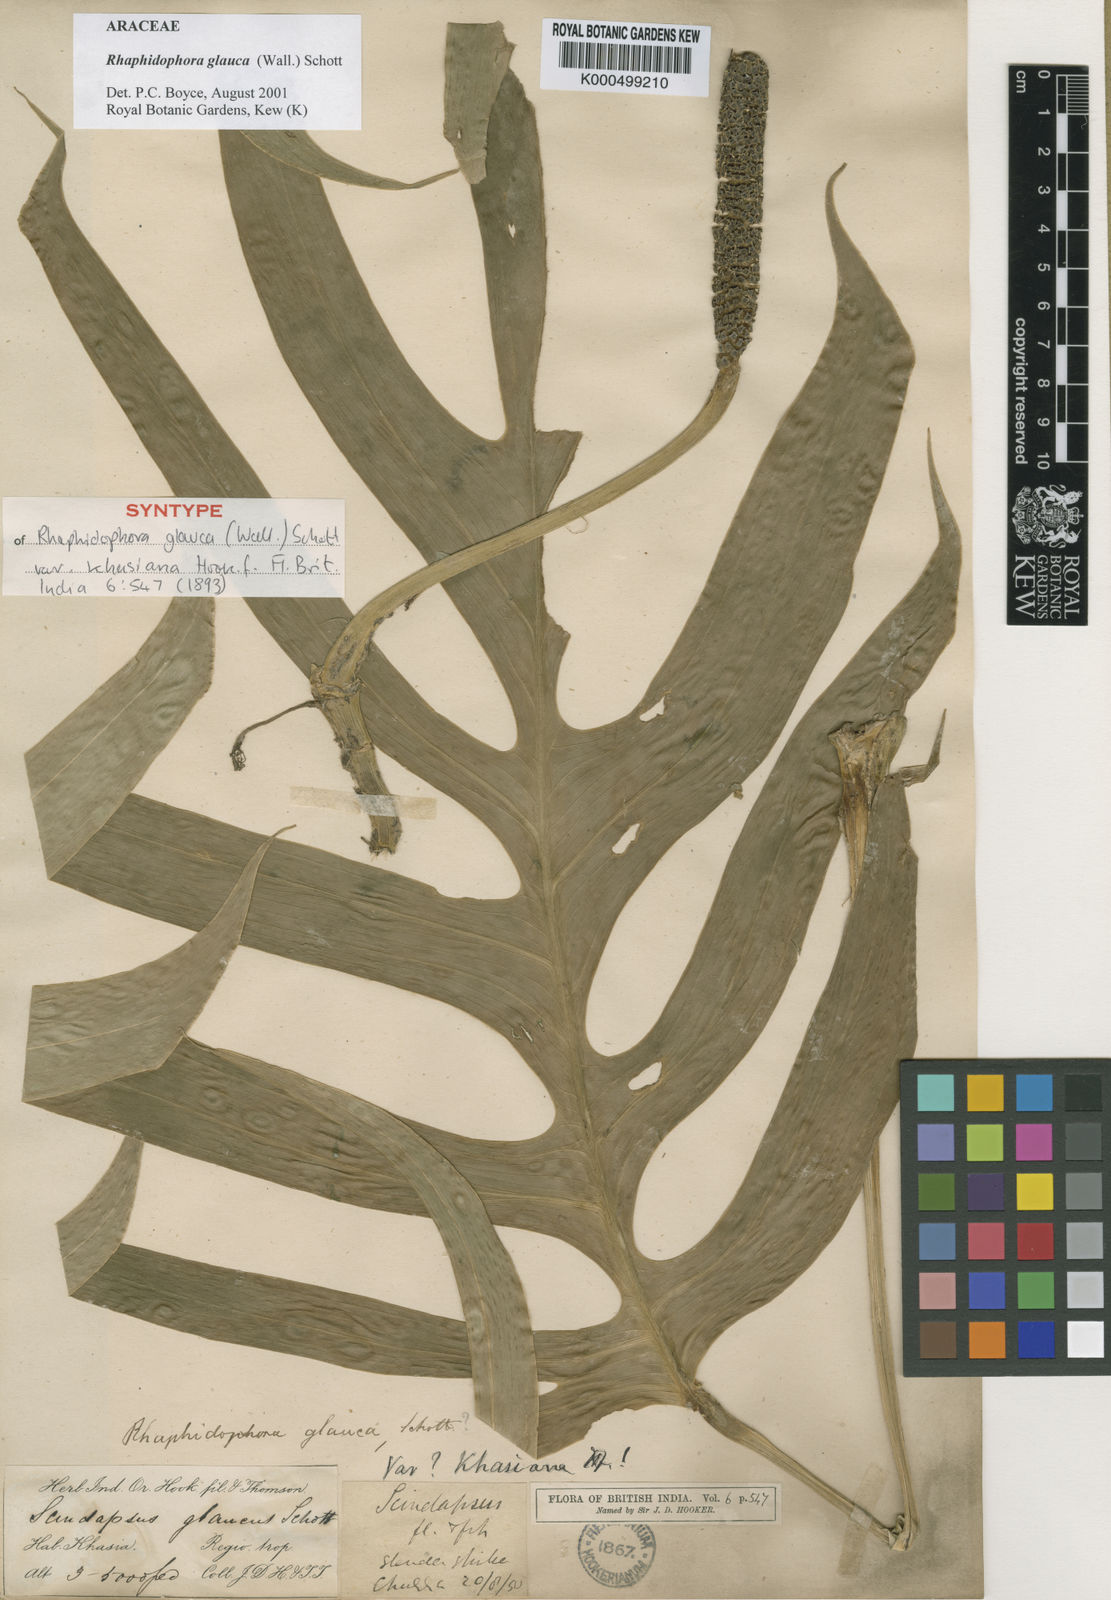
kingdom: Plantae
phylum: Tracheophyta
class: Liliopsida
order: Alismatales
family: Araceae
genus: Rhaphidophora
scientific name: Rhaphidophora glauca
